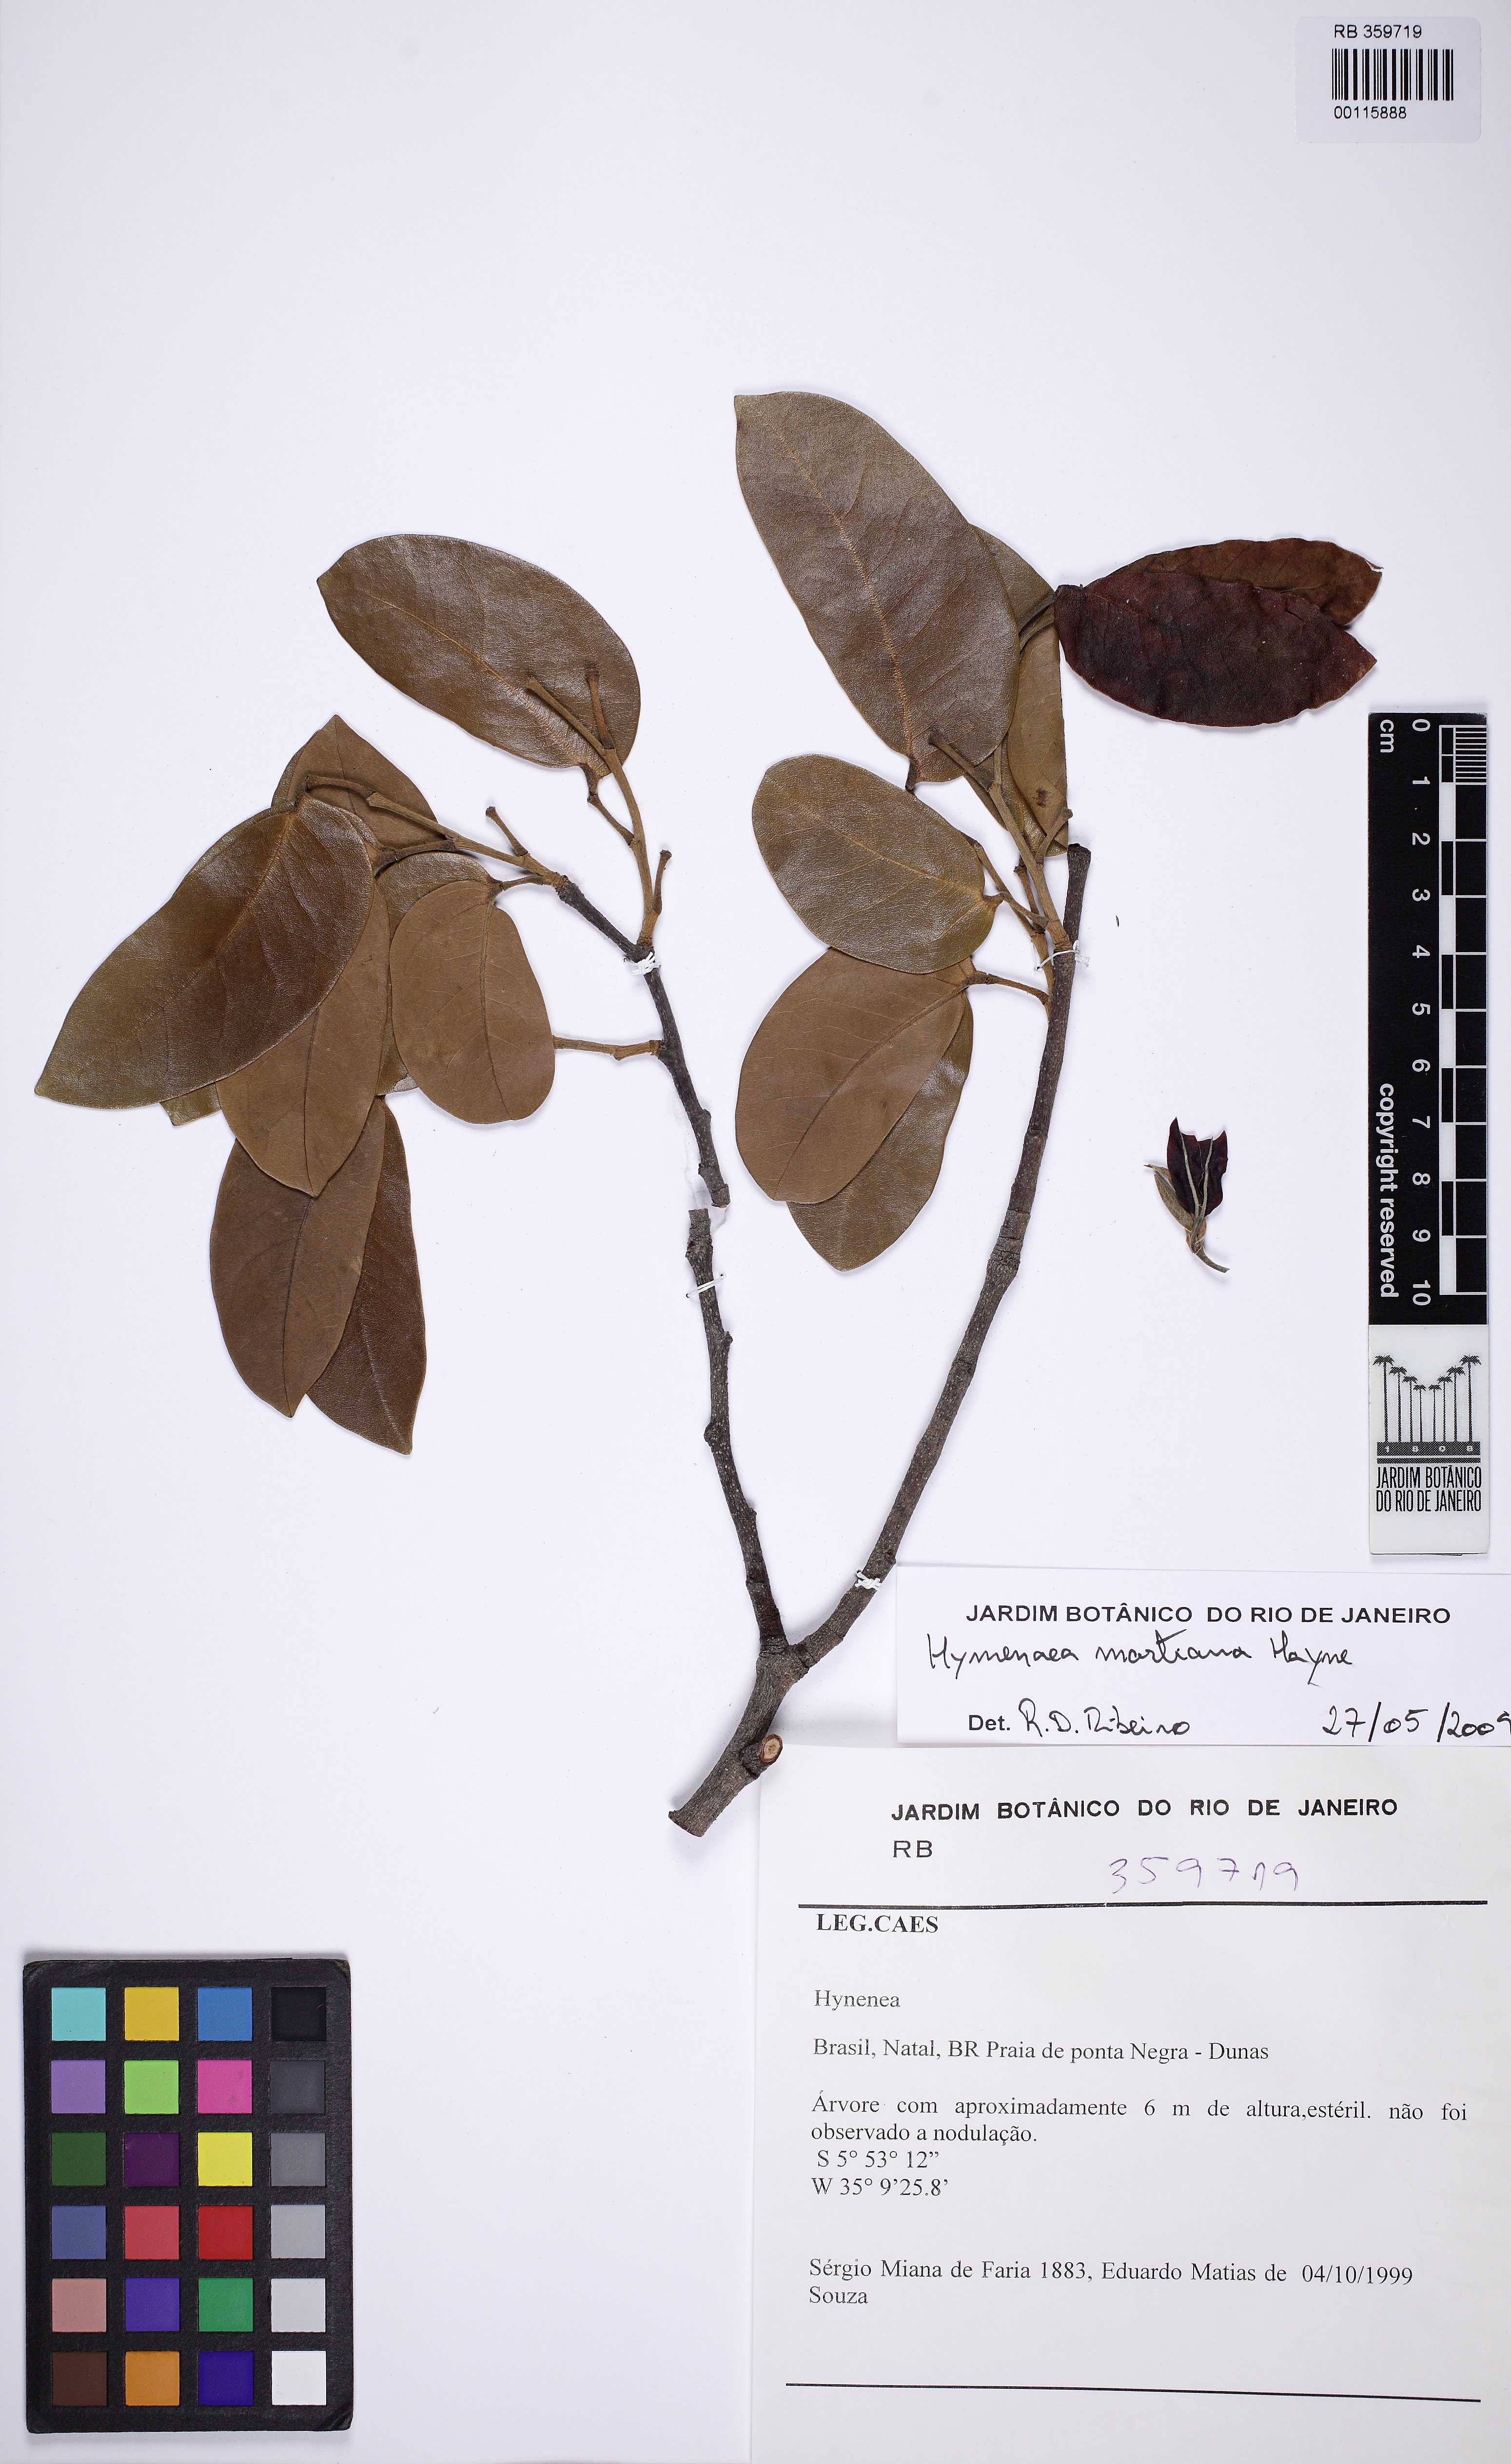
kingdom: Plantae
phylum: Tracheophyta
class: Magnoliopsida
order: Fabales
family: Fabaceae
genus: Hymenaea
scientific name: Hymenaea eriogyne
